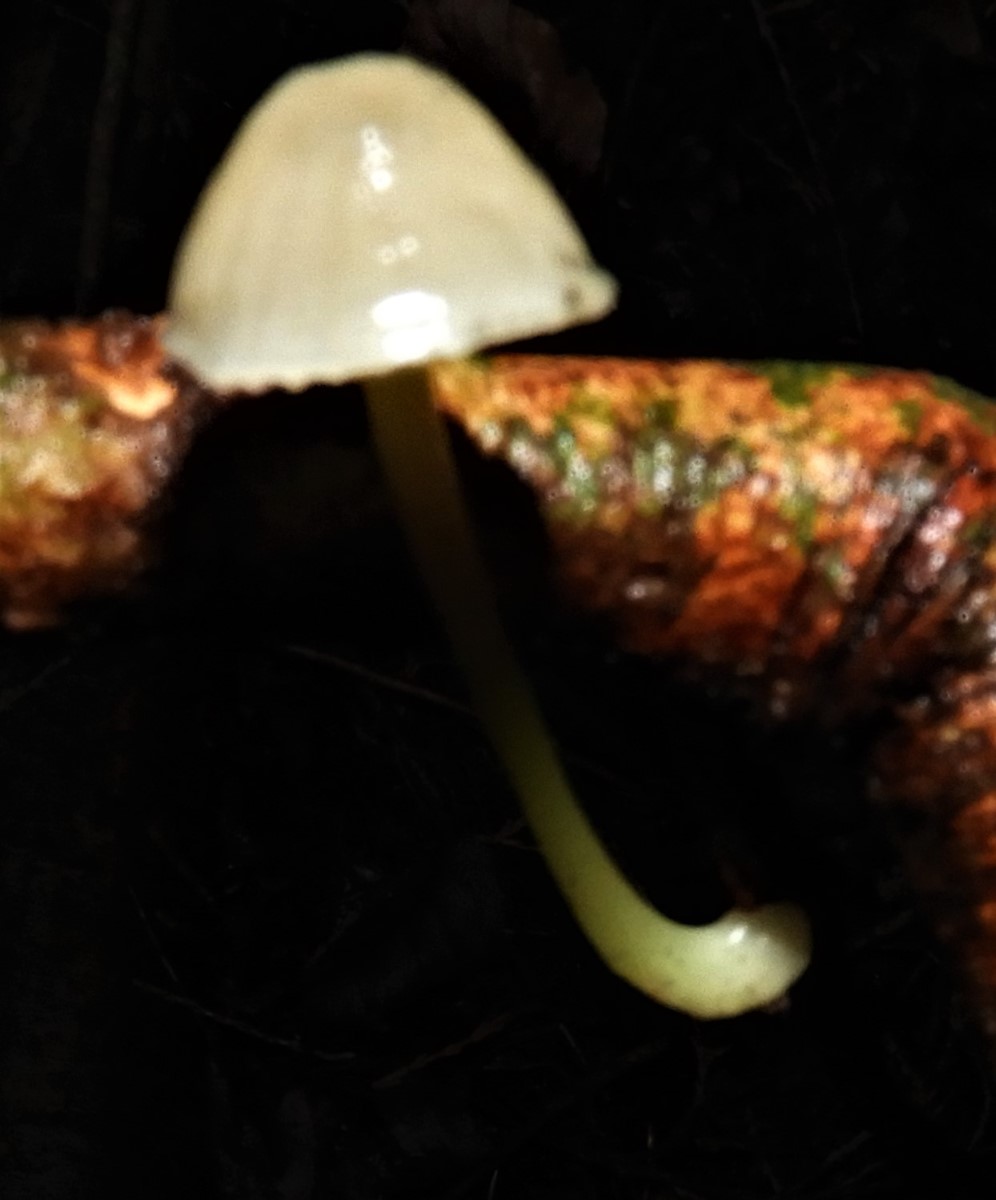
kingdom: Fungi
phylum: Basidiomycota
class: Agaricomycetes
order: Agaricales
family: Mycenaceae
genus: Mycena
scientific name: Mycena epipterygia
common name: gulstokket huesvamp
